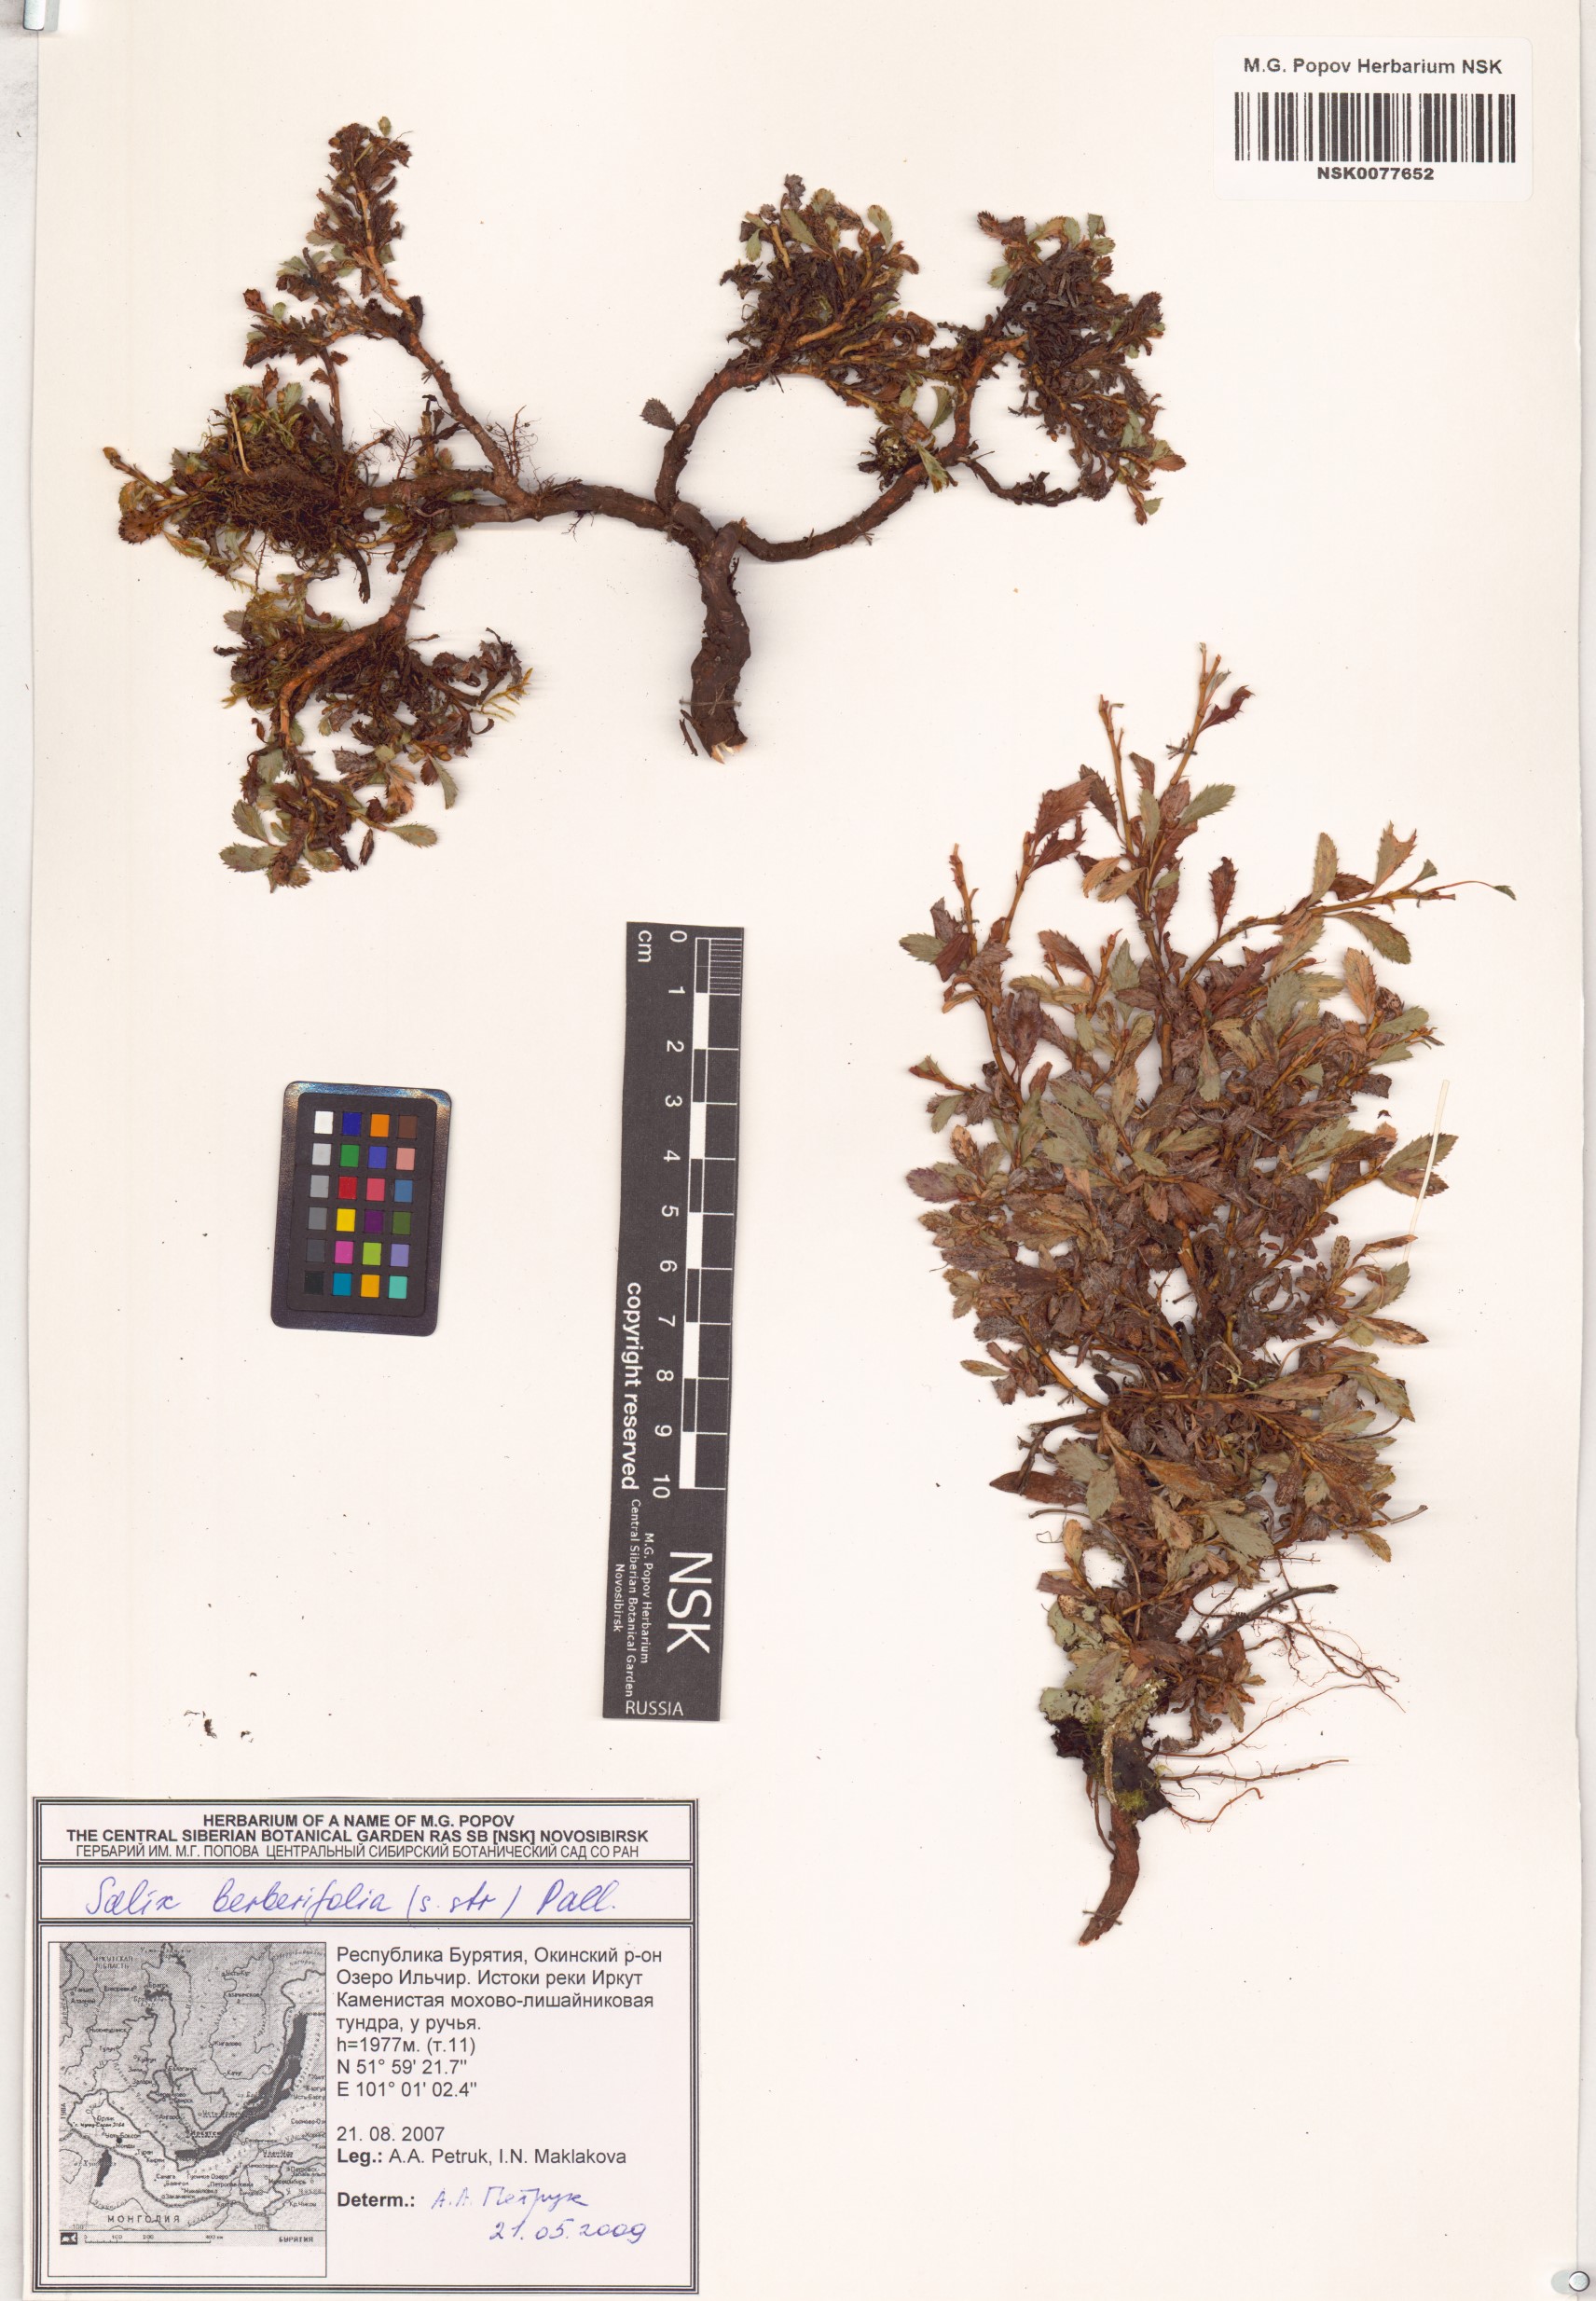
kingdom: Plantae
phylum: Tracheophyta
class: Magnoliopsida
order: Malpighiales
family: Salicaceae
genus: Salix
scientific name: Salix berberifolia
